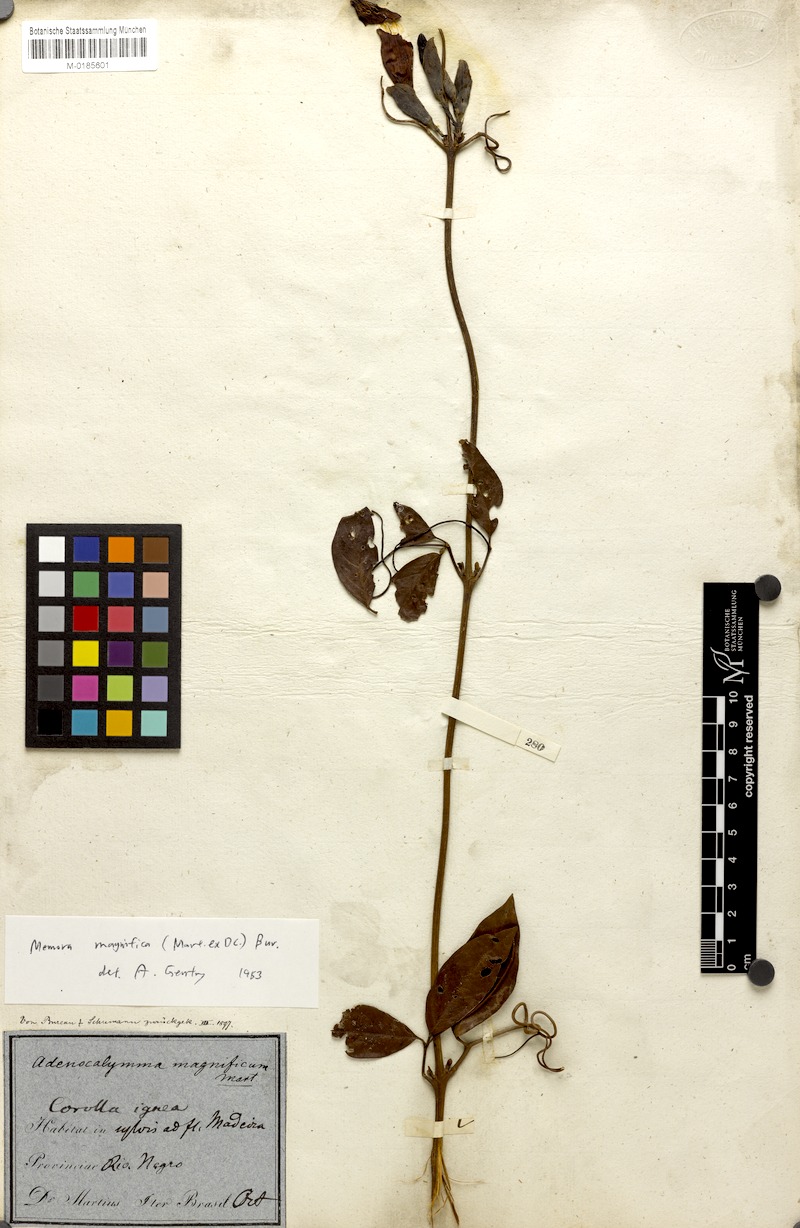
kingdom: Plantae
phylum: Tracheophyta
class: Magnoliopsida
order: Lamiales
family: Bignoniaceae
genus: Adenocalymma
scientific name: Adenocalymma magnificum
